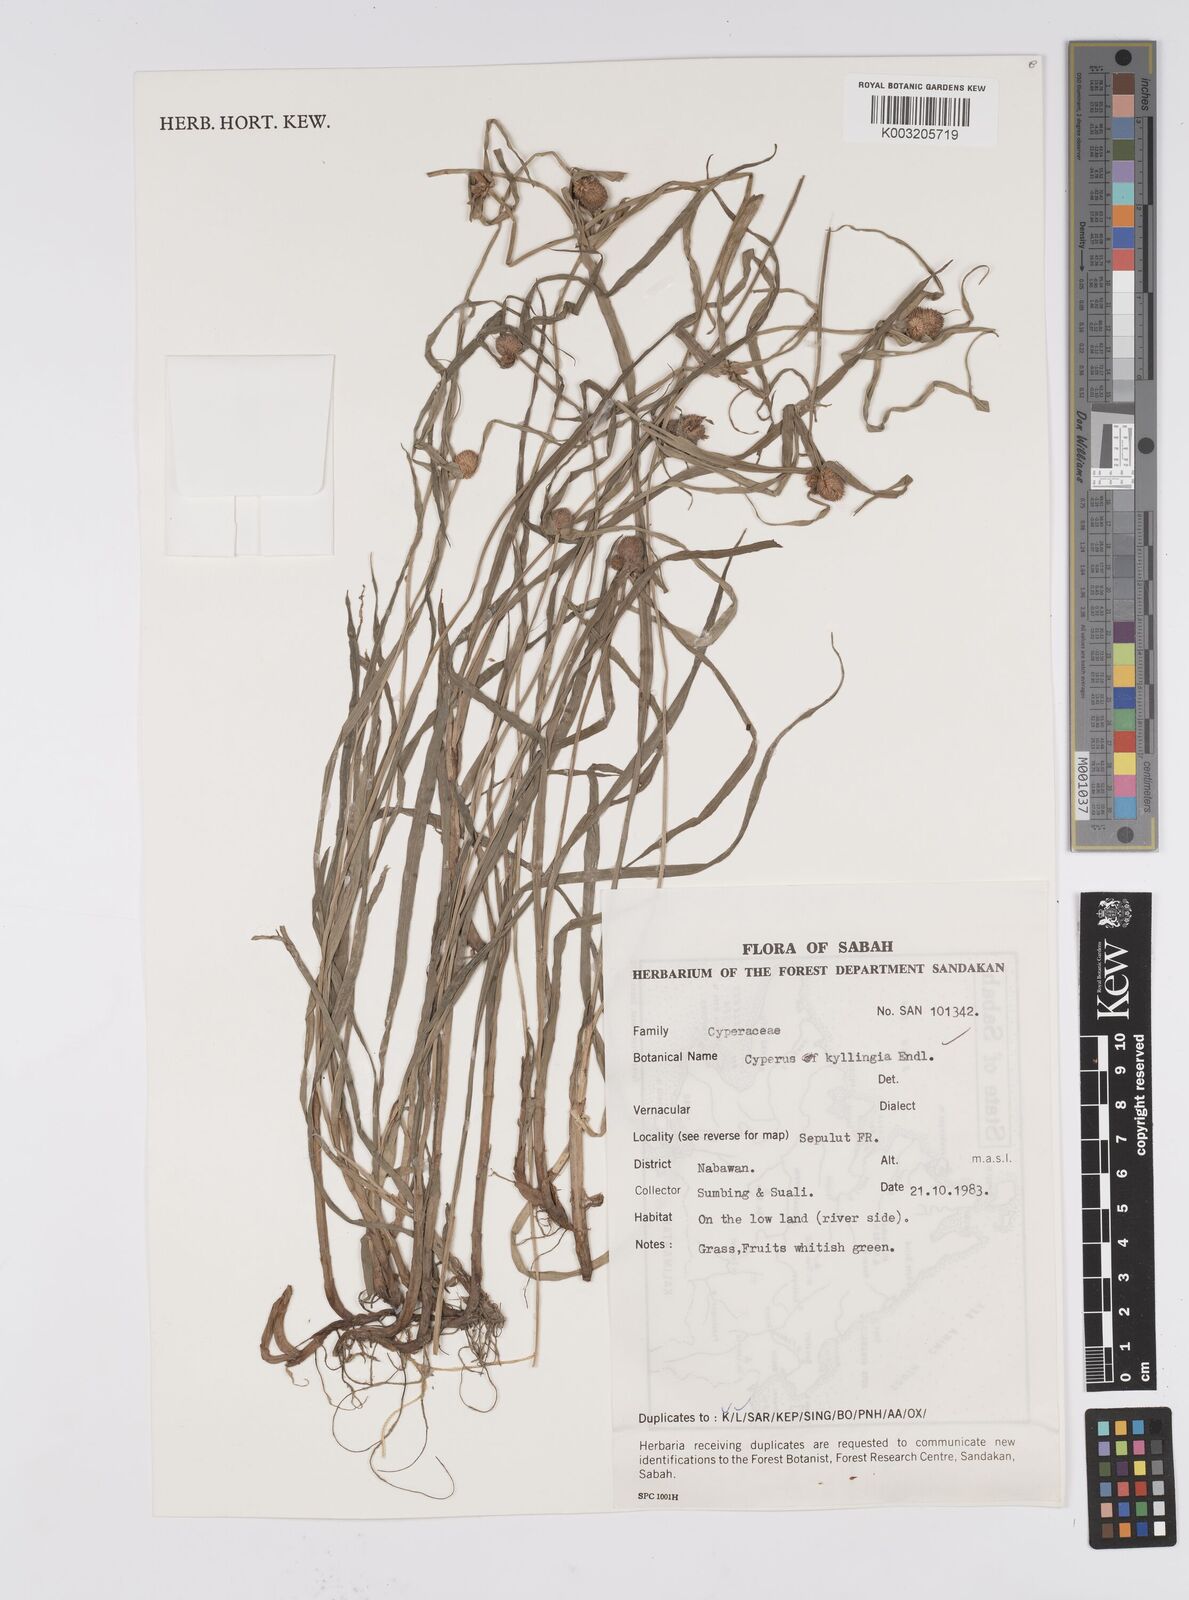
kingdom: Plantae
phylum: Tracheophyta
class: Liliopsida
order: Poales
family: Cyperaceae
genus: Cyperus
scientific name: Cyperus nemoralis
